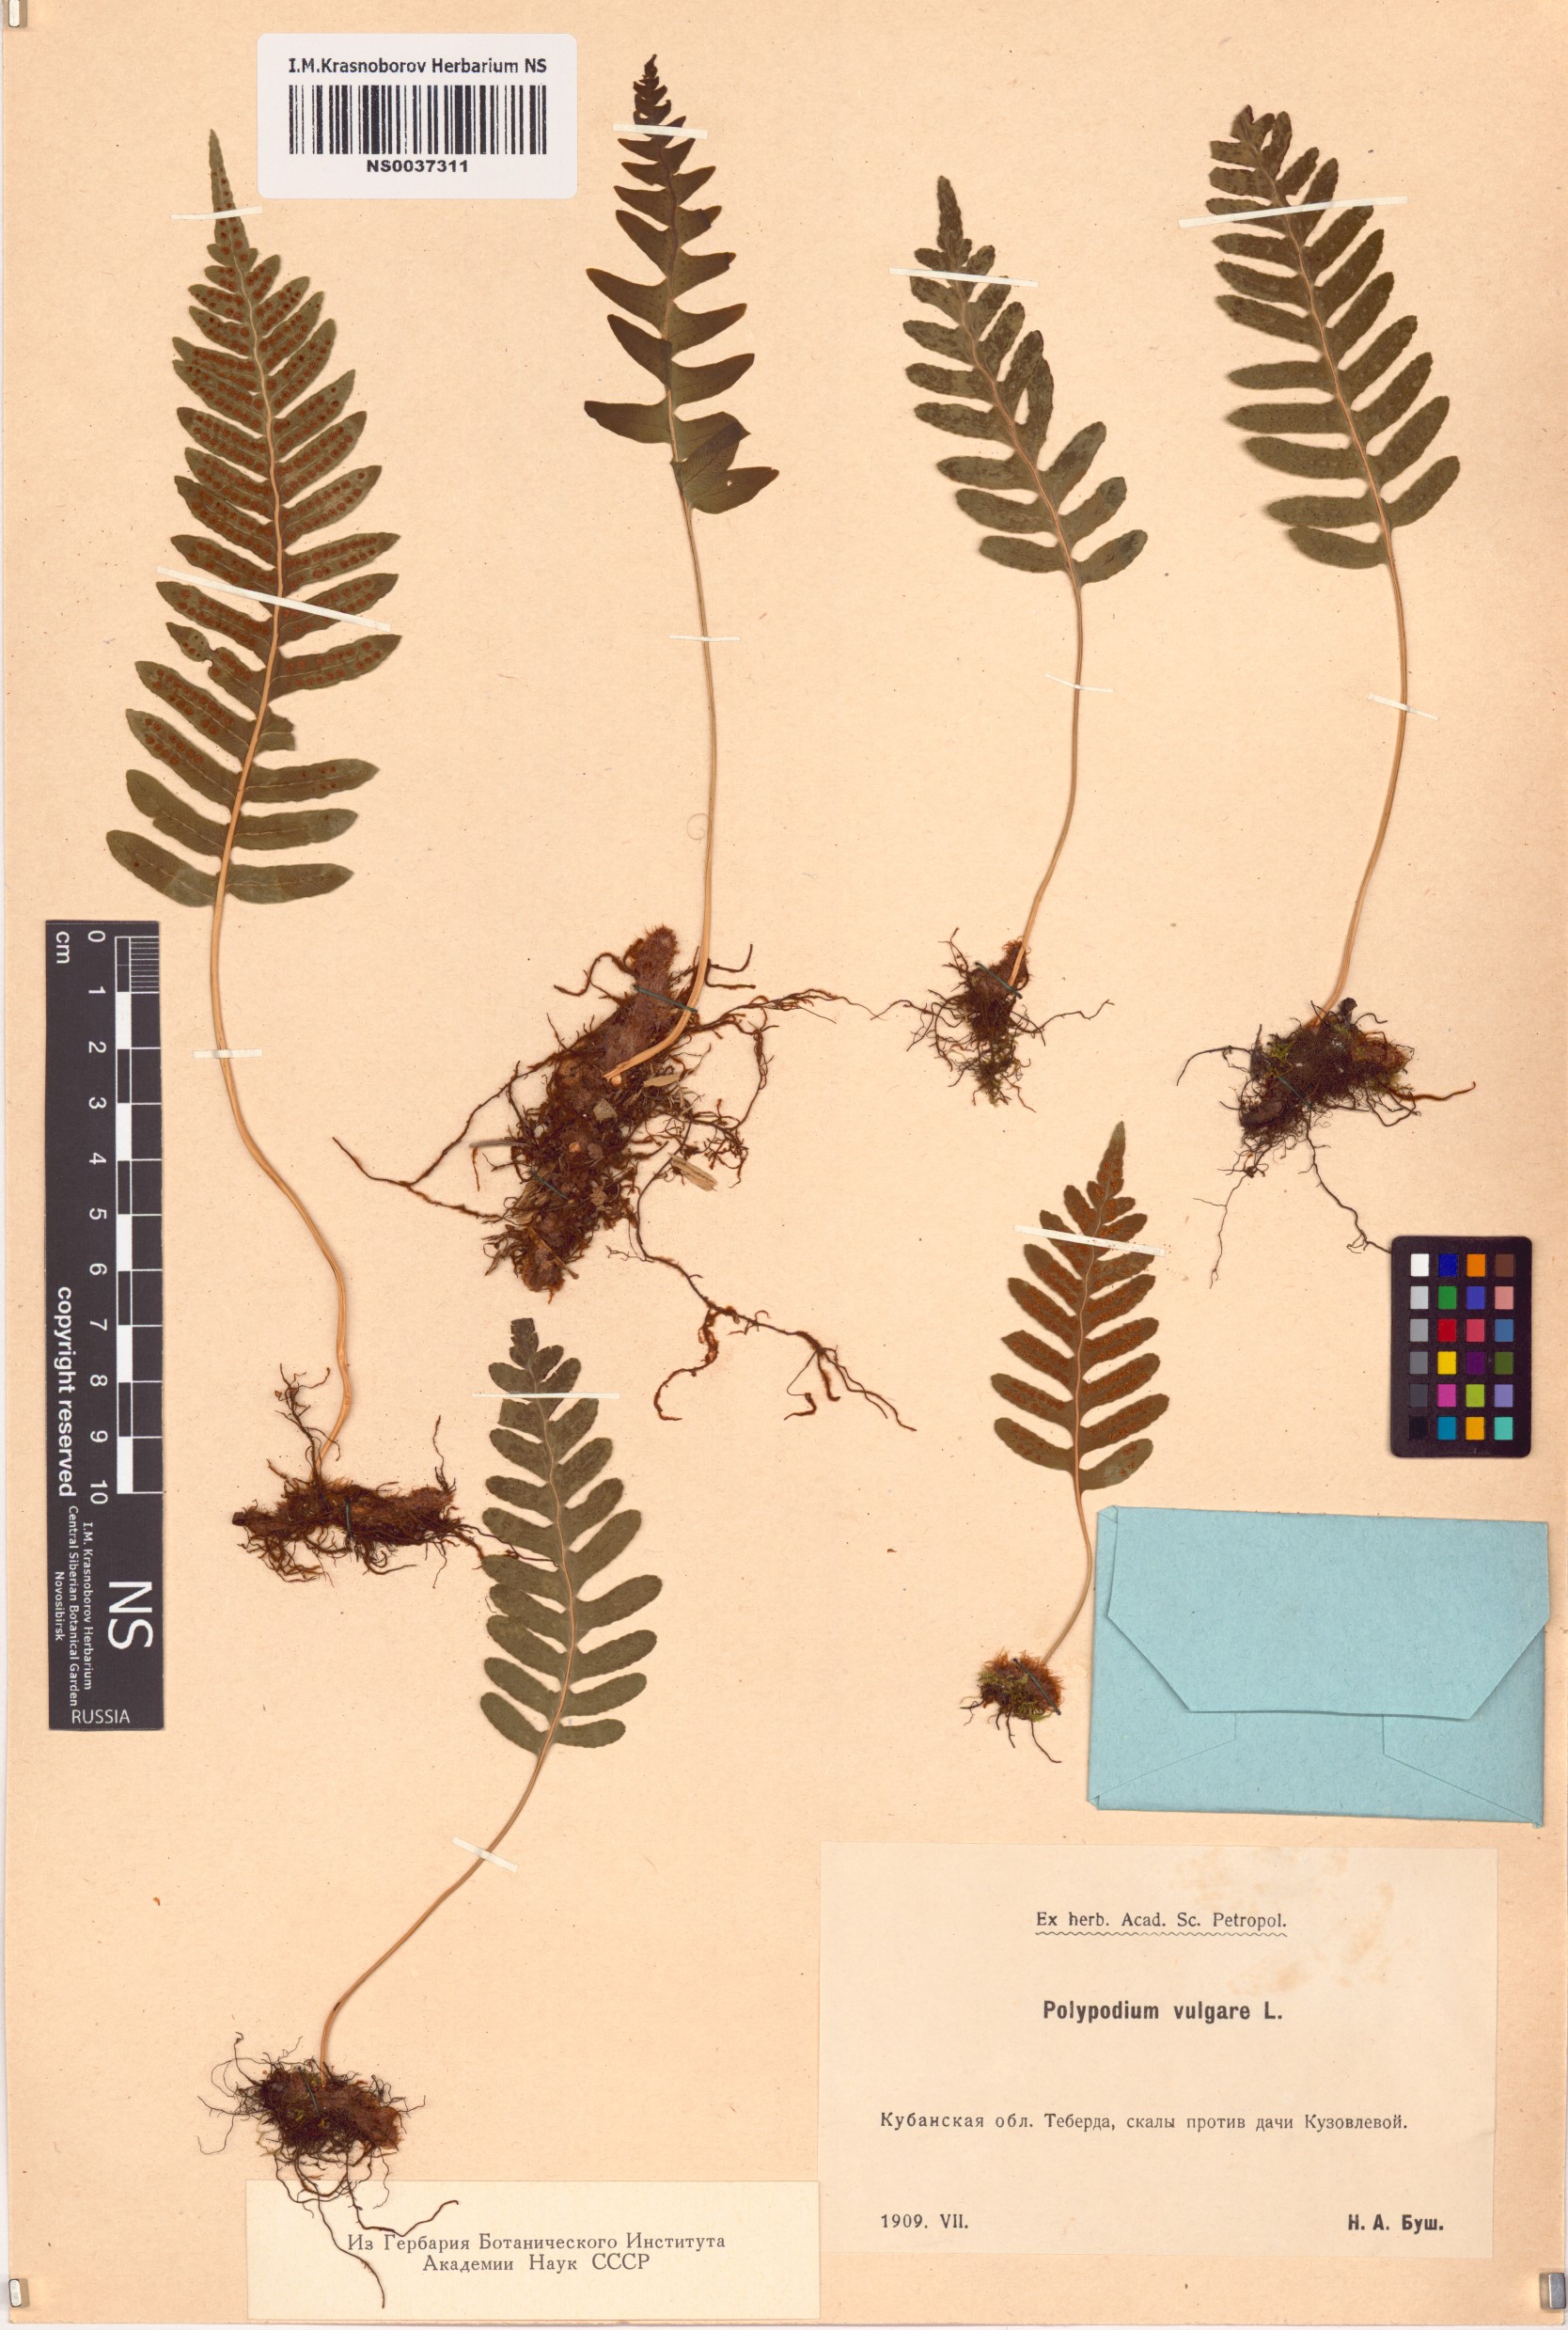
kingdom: Plantae
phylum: Tracheophyta
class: Polypodiopsida
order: Polypodiales
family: Polypodiaceae
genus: Polypodium
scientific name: Polypodium vulgare
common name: Common polypody
